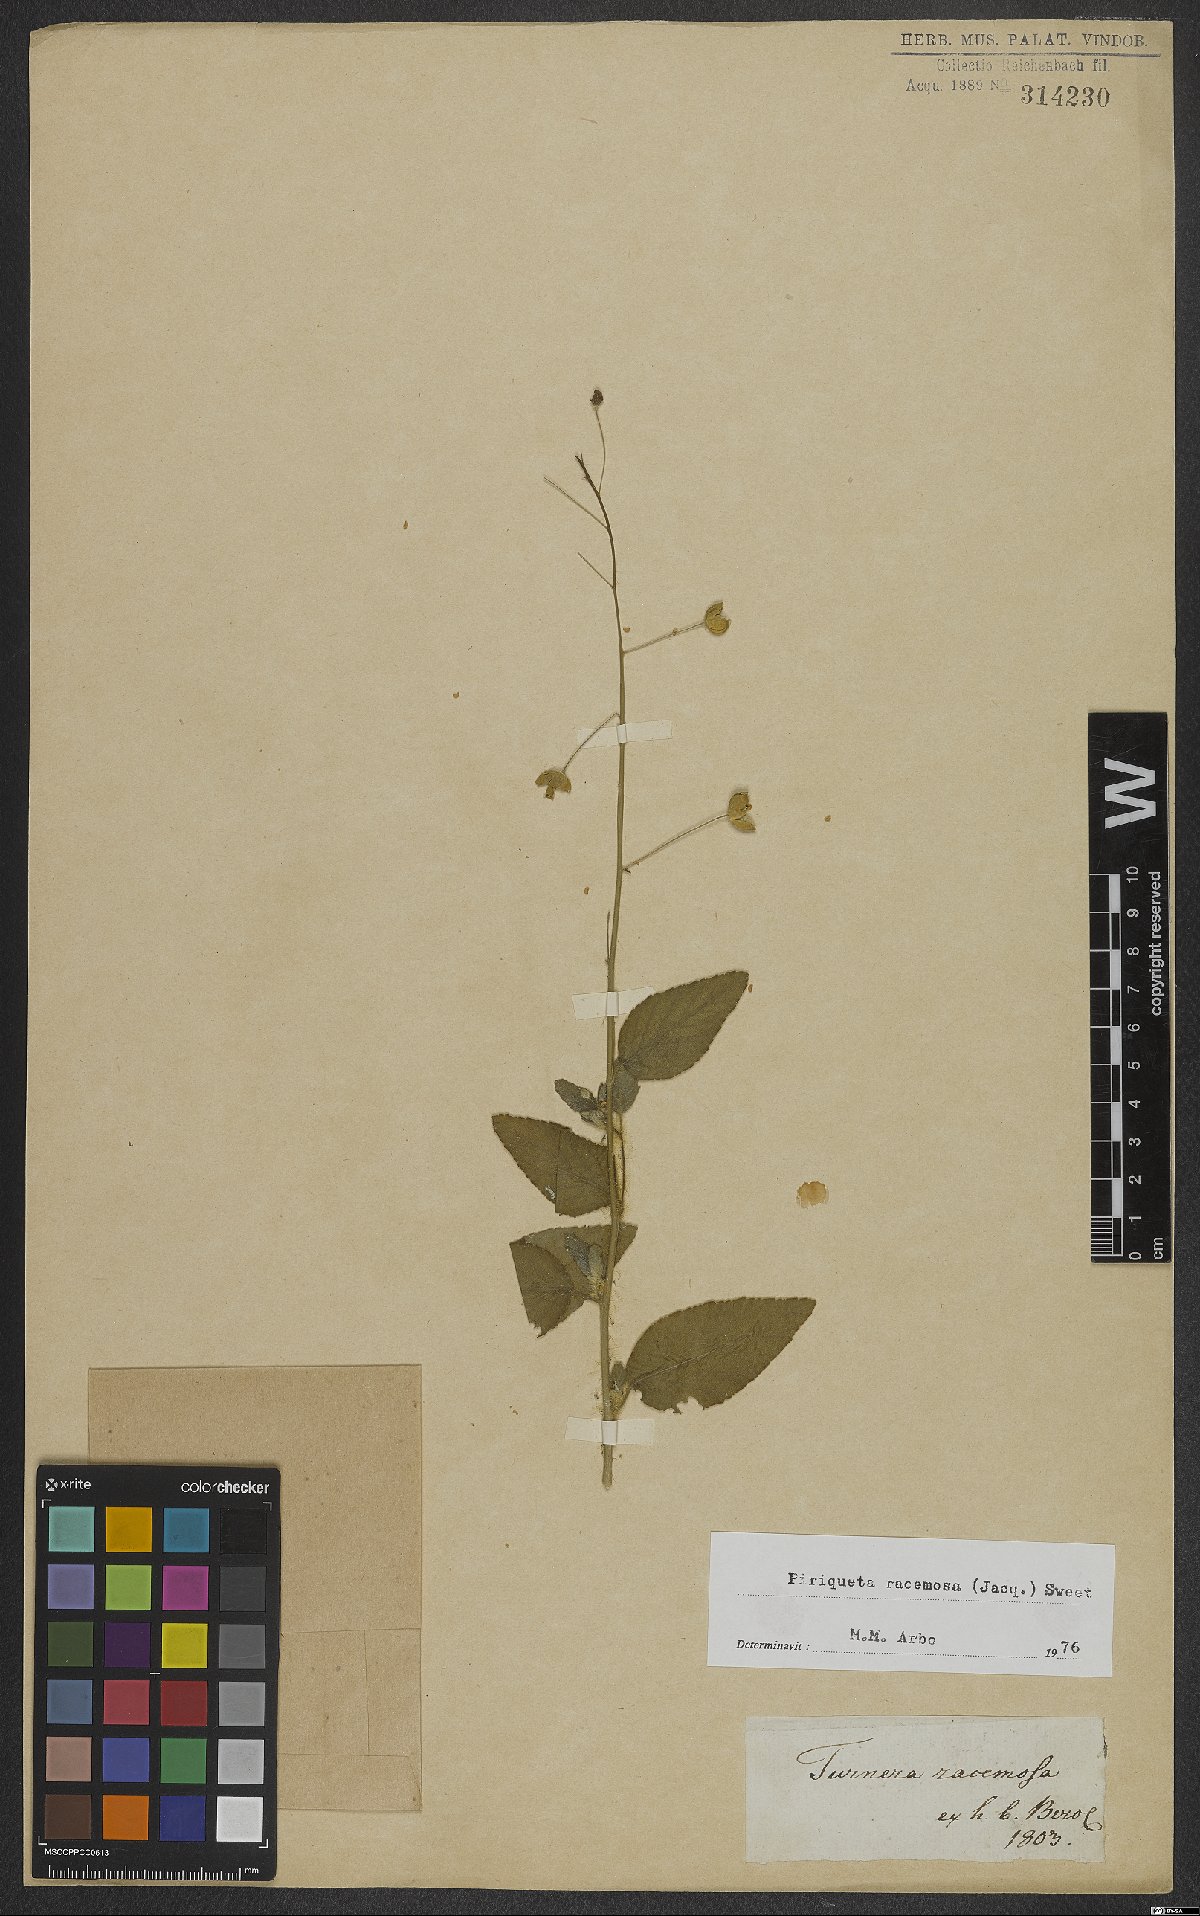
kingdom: Plantae
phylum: Tracheophyta
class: Magnoliopsida
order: Malpighiales
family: Turneraceae
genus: Piriqueta
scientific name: Piriqueta racemosa
